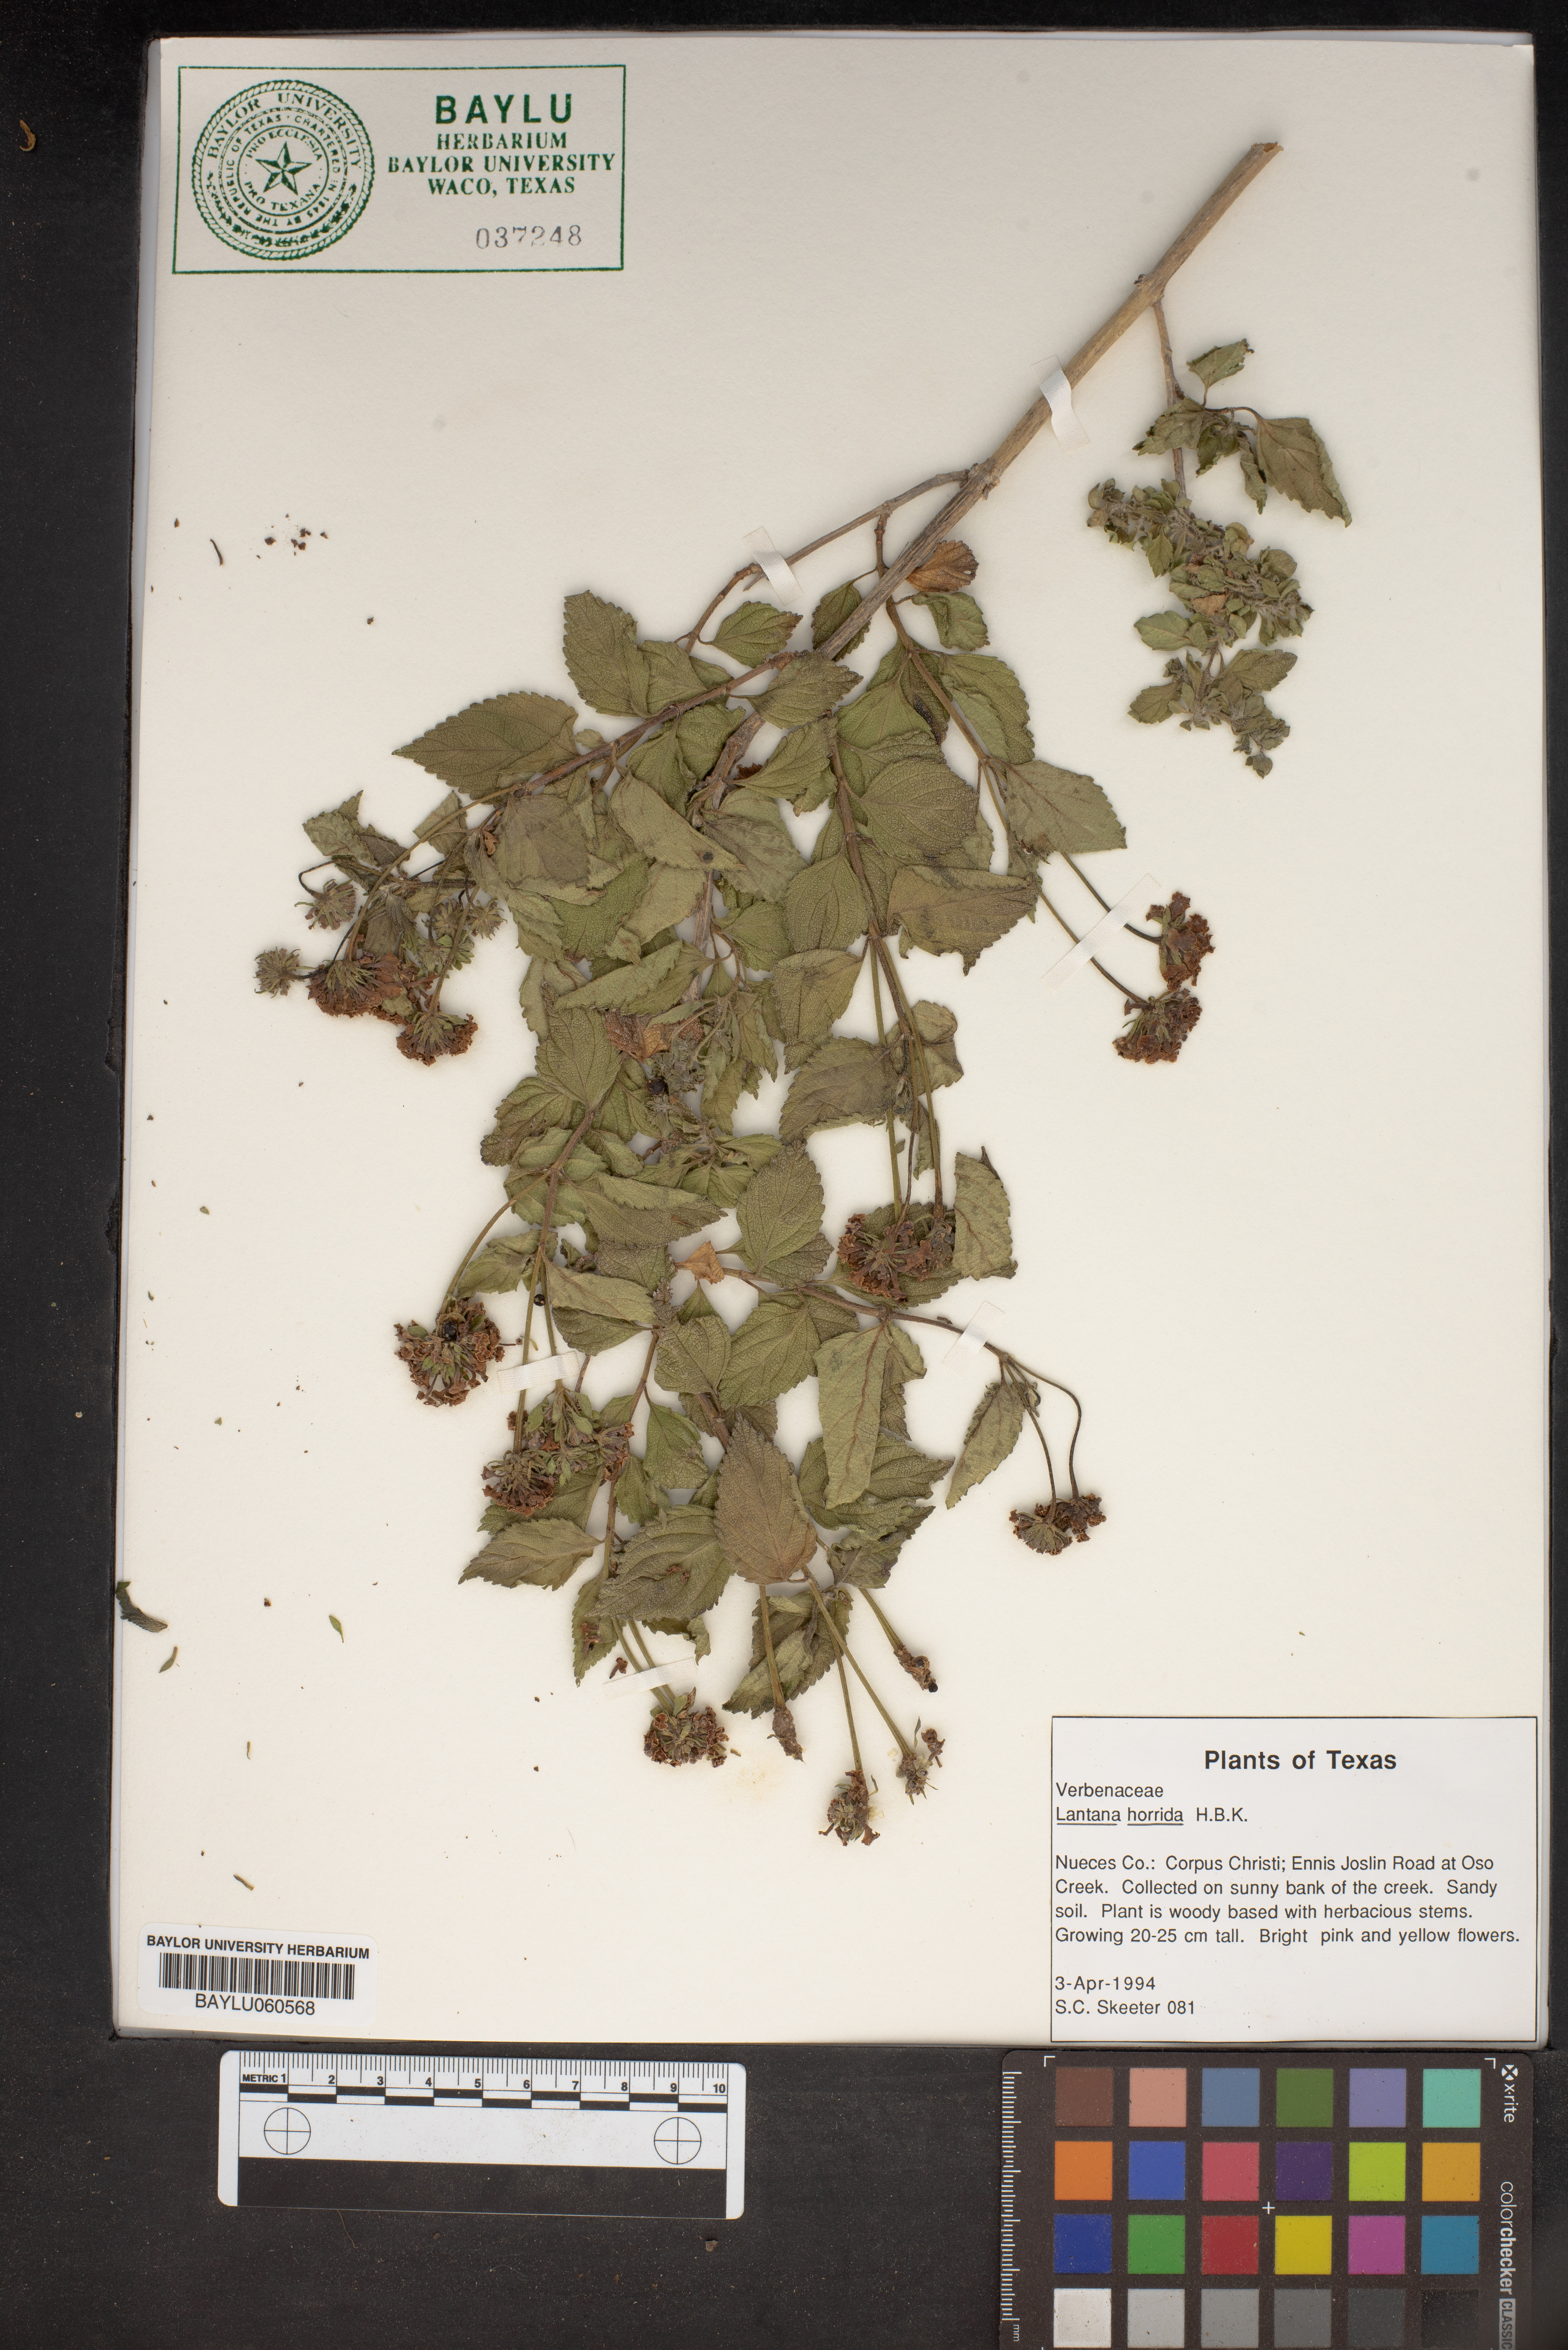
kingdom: Plantae
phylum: Tracheophyta
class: Magnoliopsida
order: Lamiales
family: Verbenaceae
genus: Lantana
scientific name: Lantana horrida
